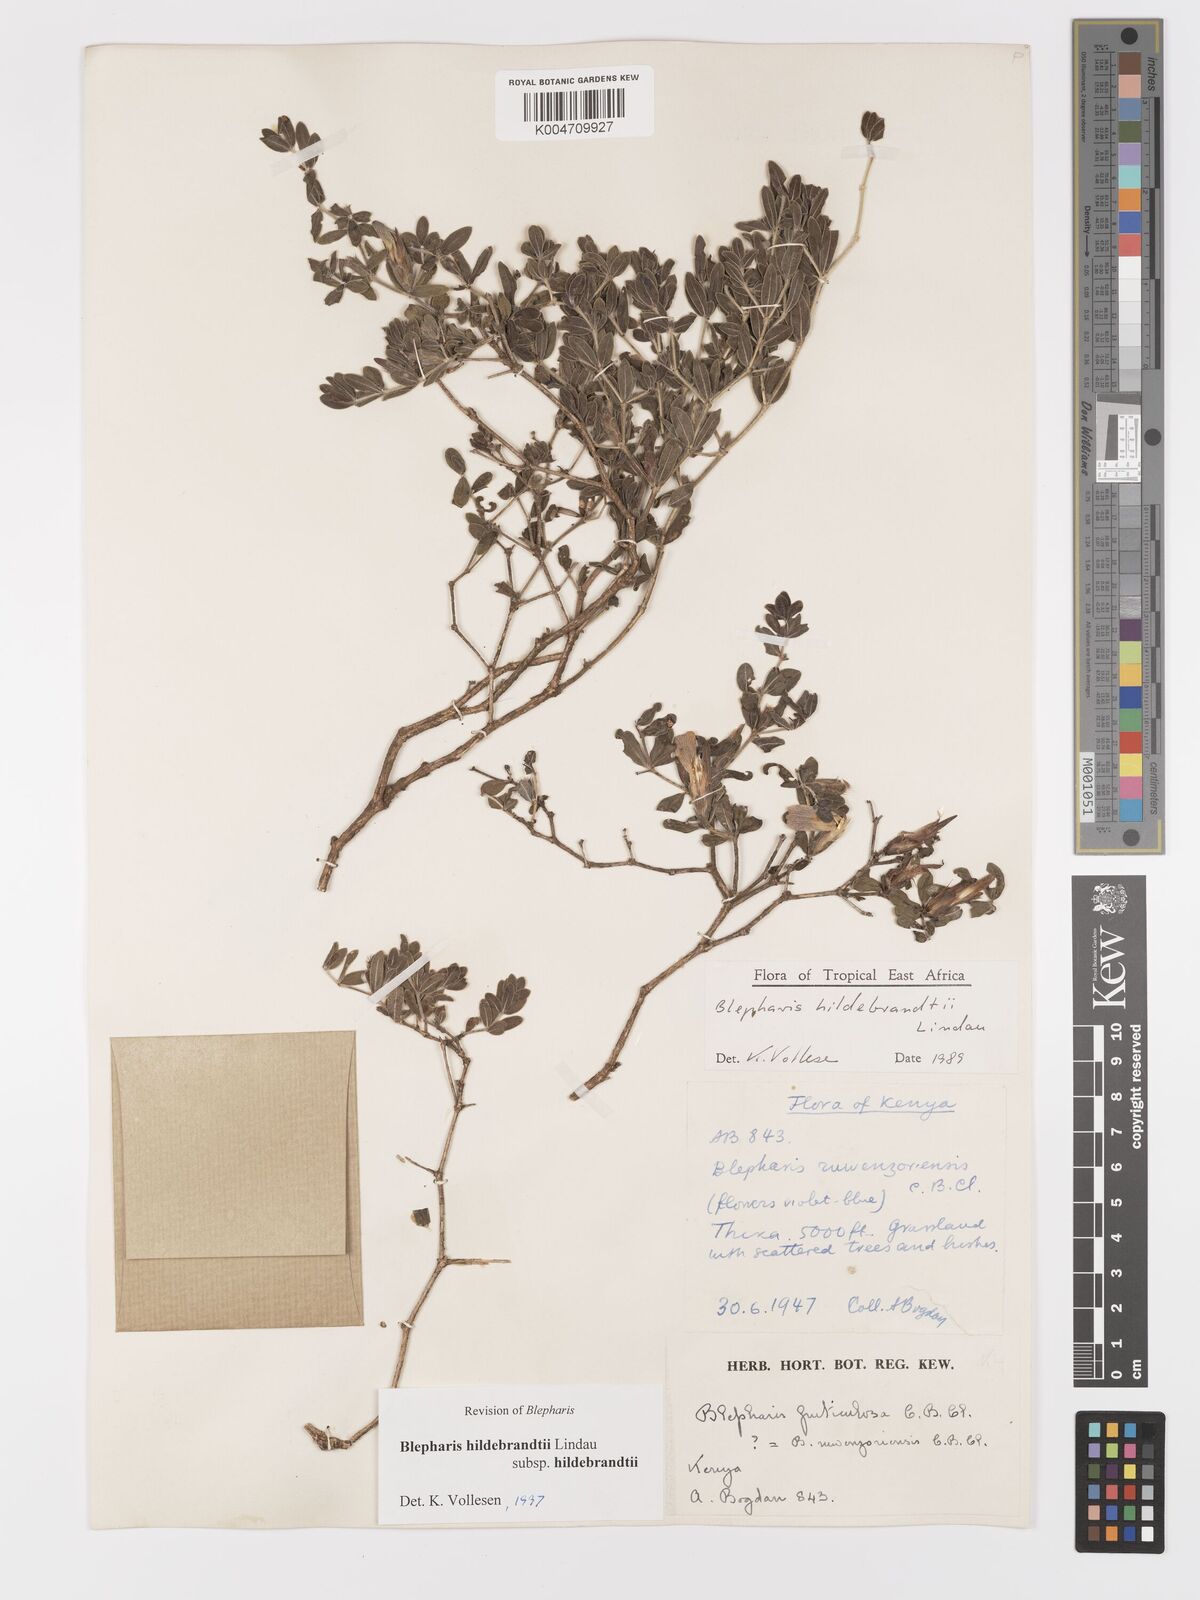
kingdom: Plantae
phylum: Tracheophyta
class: Magnoliopsida
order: Lamiales
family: Acanthaceae
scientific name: Acanthaceae
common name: Acanthaceae
